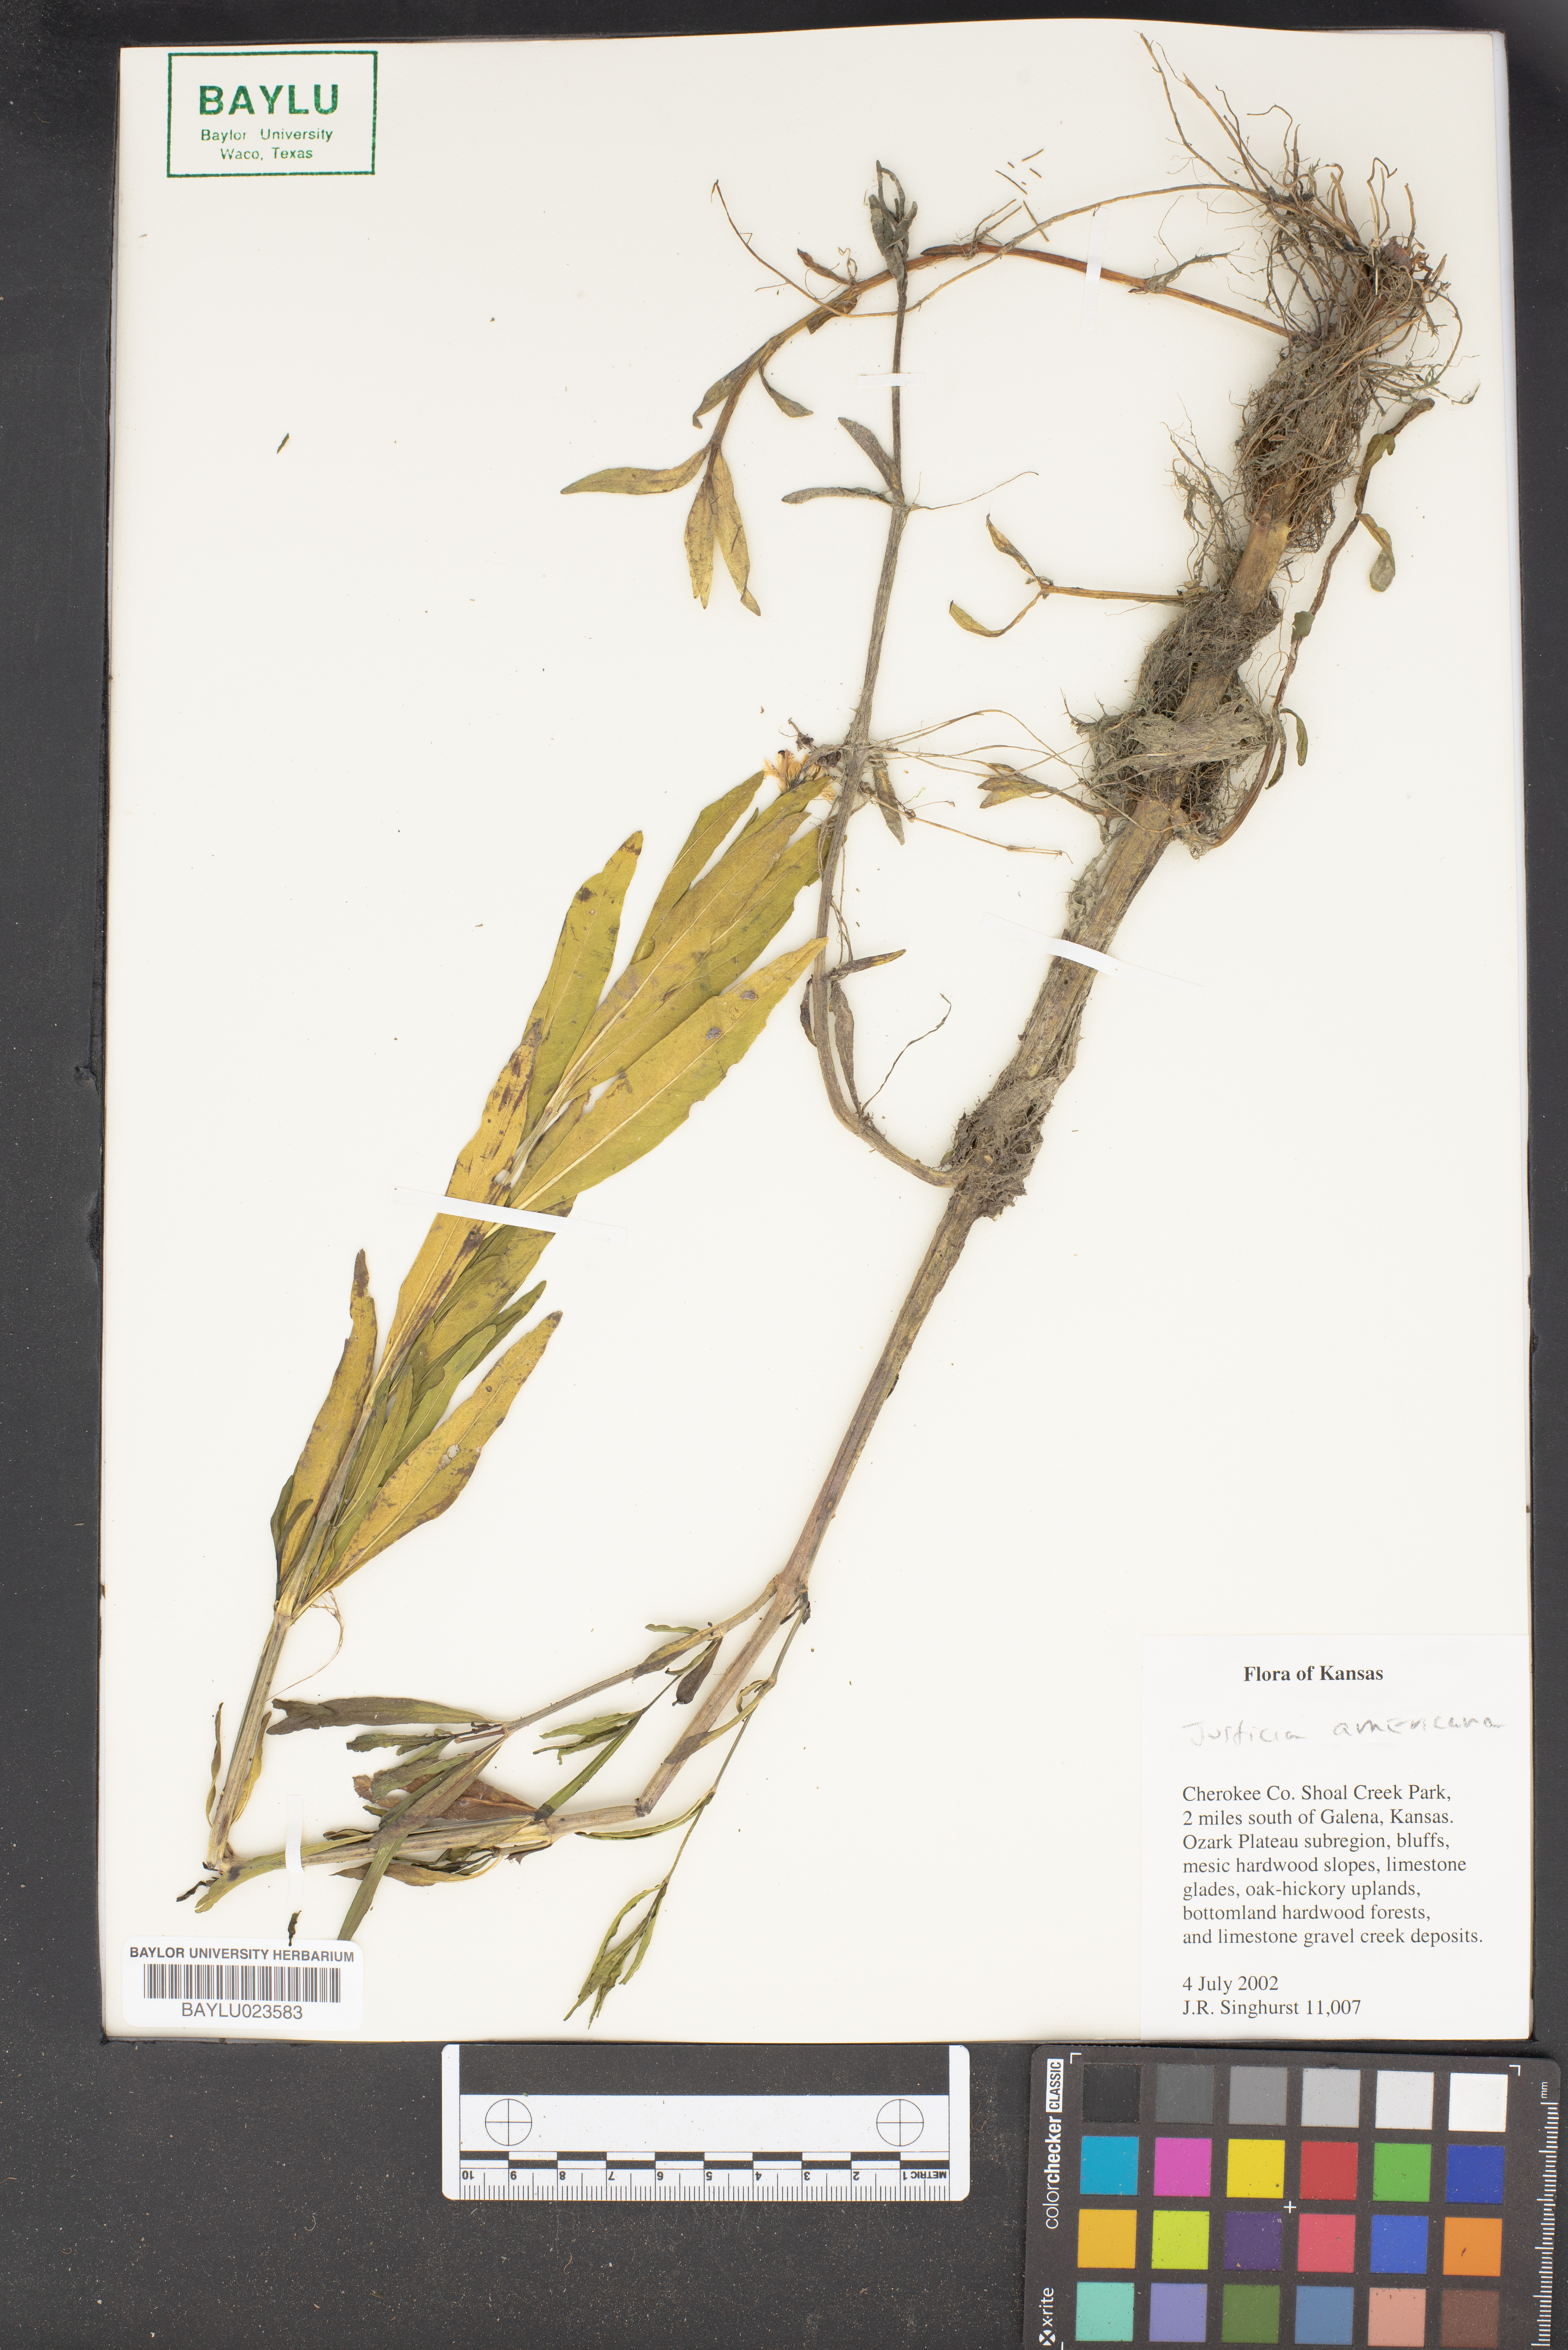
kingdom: Plantae
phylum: Tracheophyta
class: Magnoliopsida
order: Lamiales
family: Acanthaceae
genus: Dianthera
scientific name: Dianthera americana
